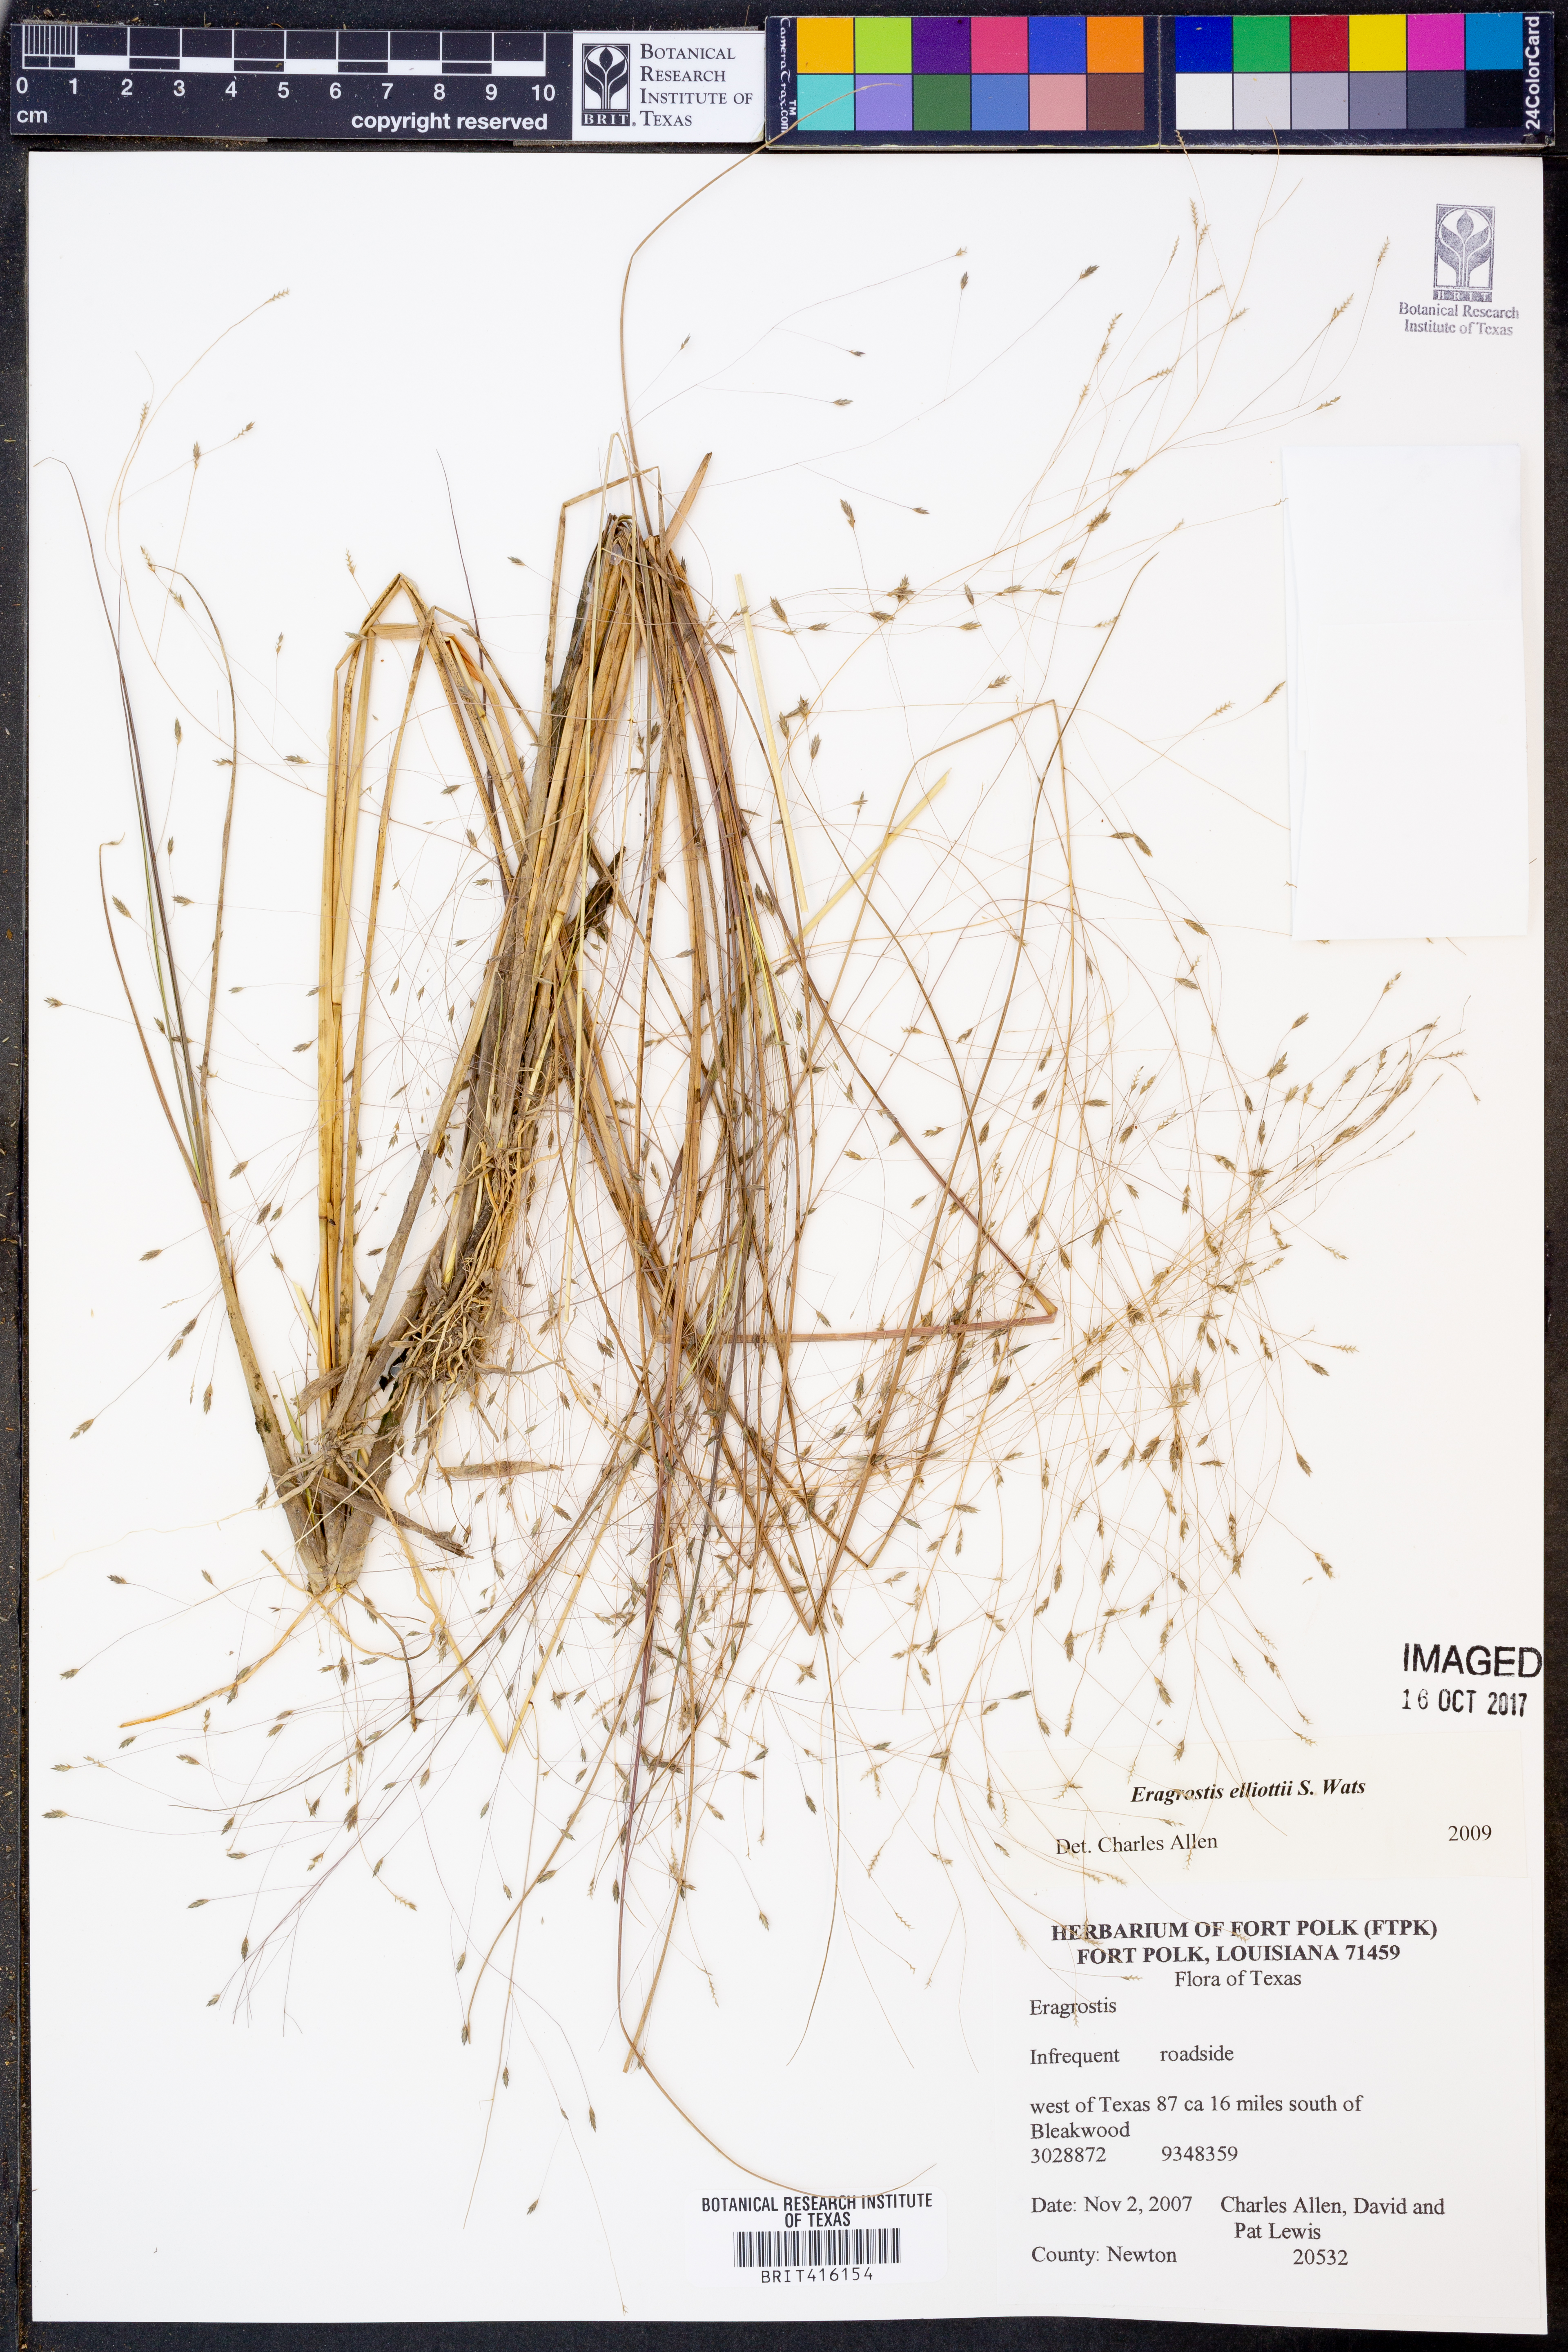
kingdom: Plantae
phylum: Tracheophyta
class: Liliopsida
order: Poales
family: Poaceae
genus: Eragrostis
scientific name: Eragrostis elliottii
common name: Elliott's love grass
